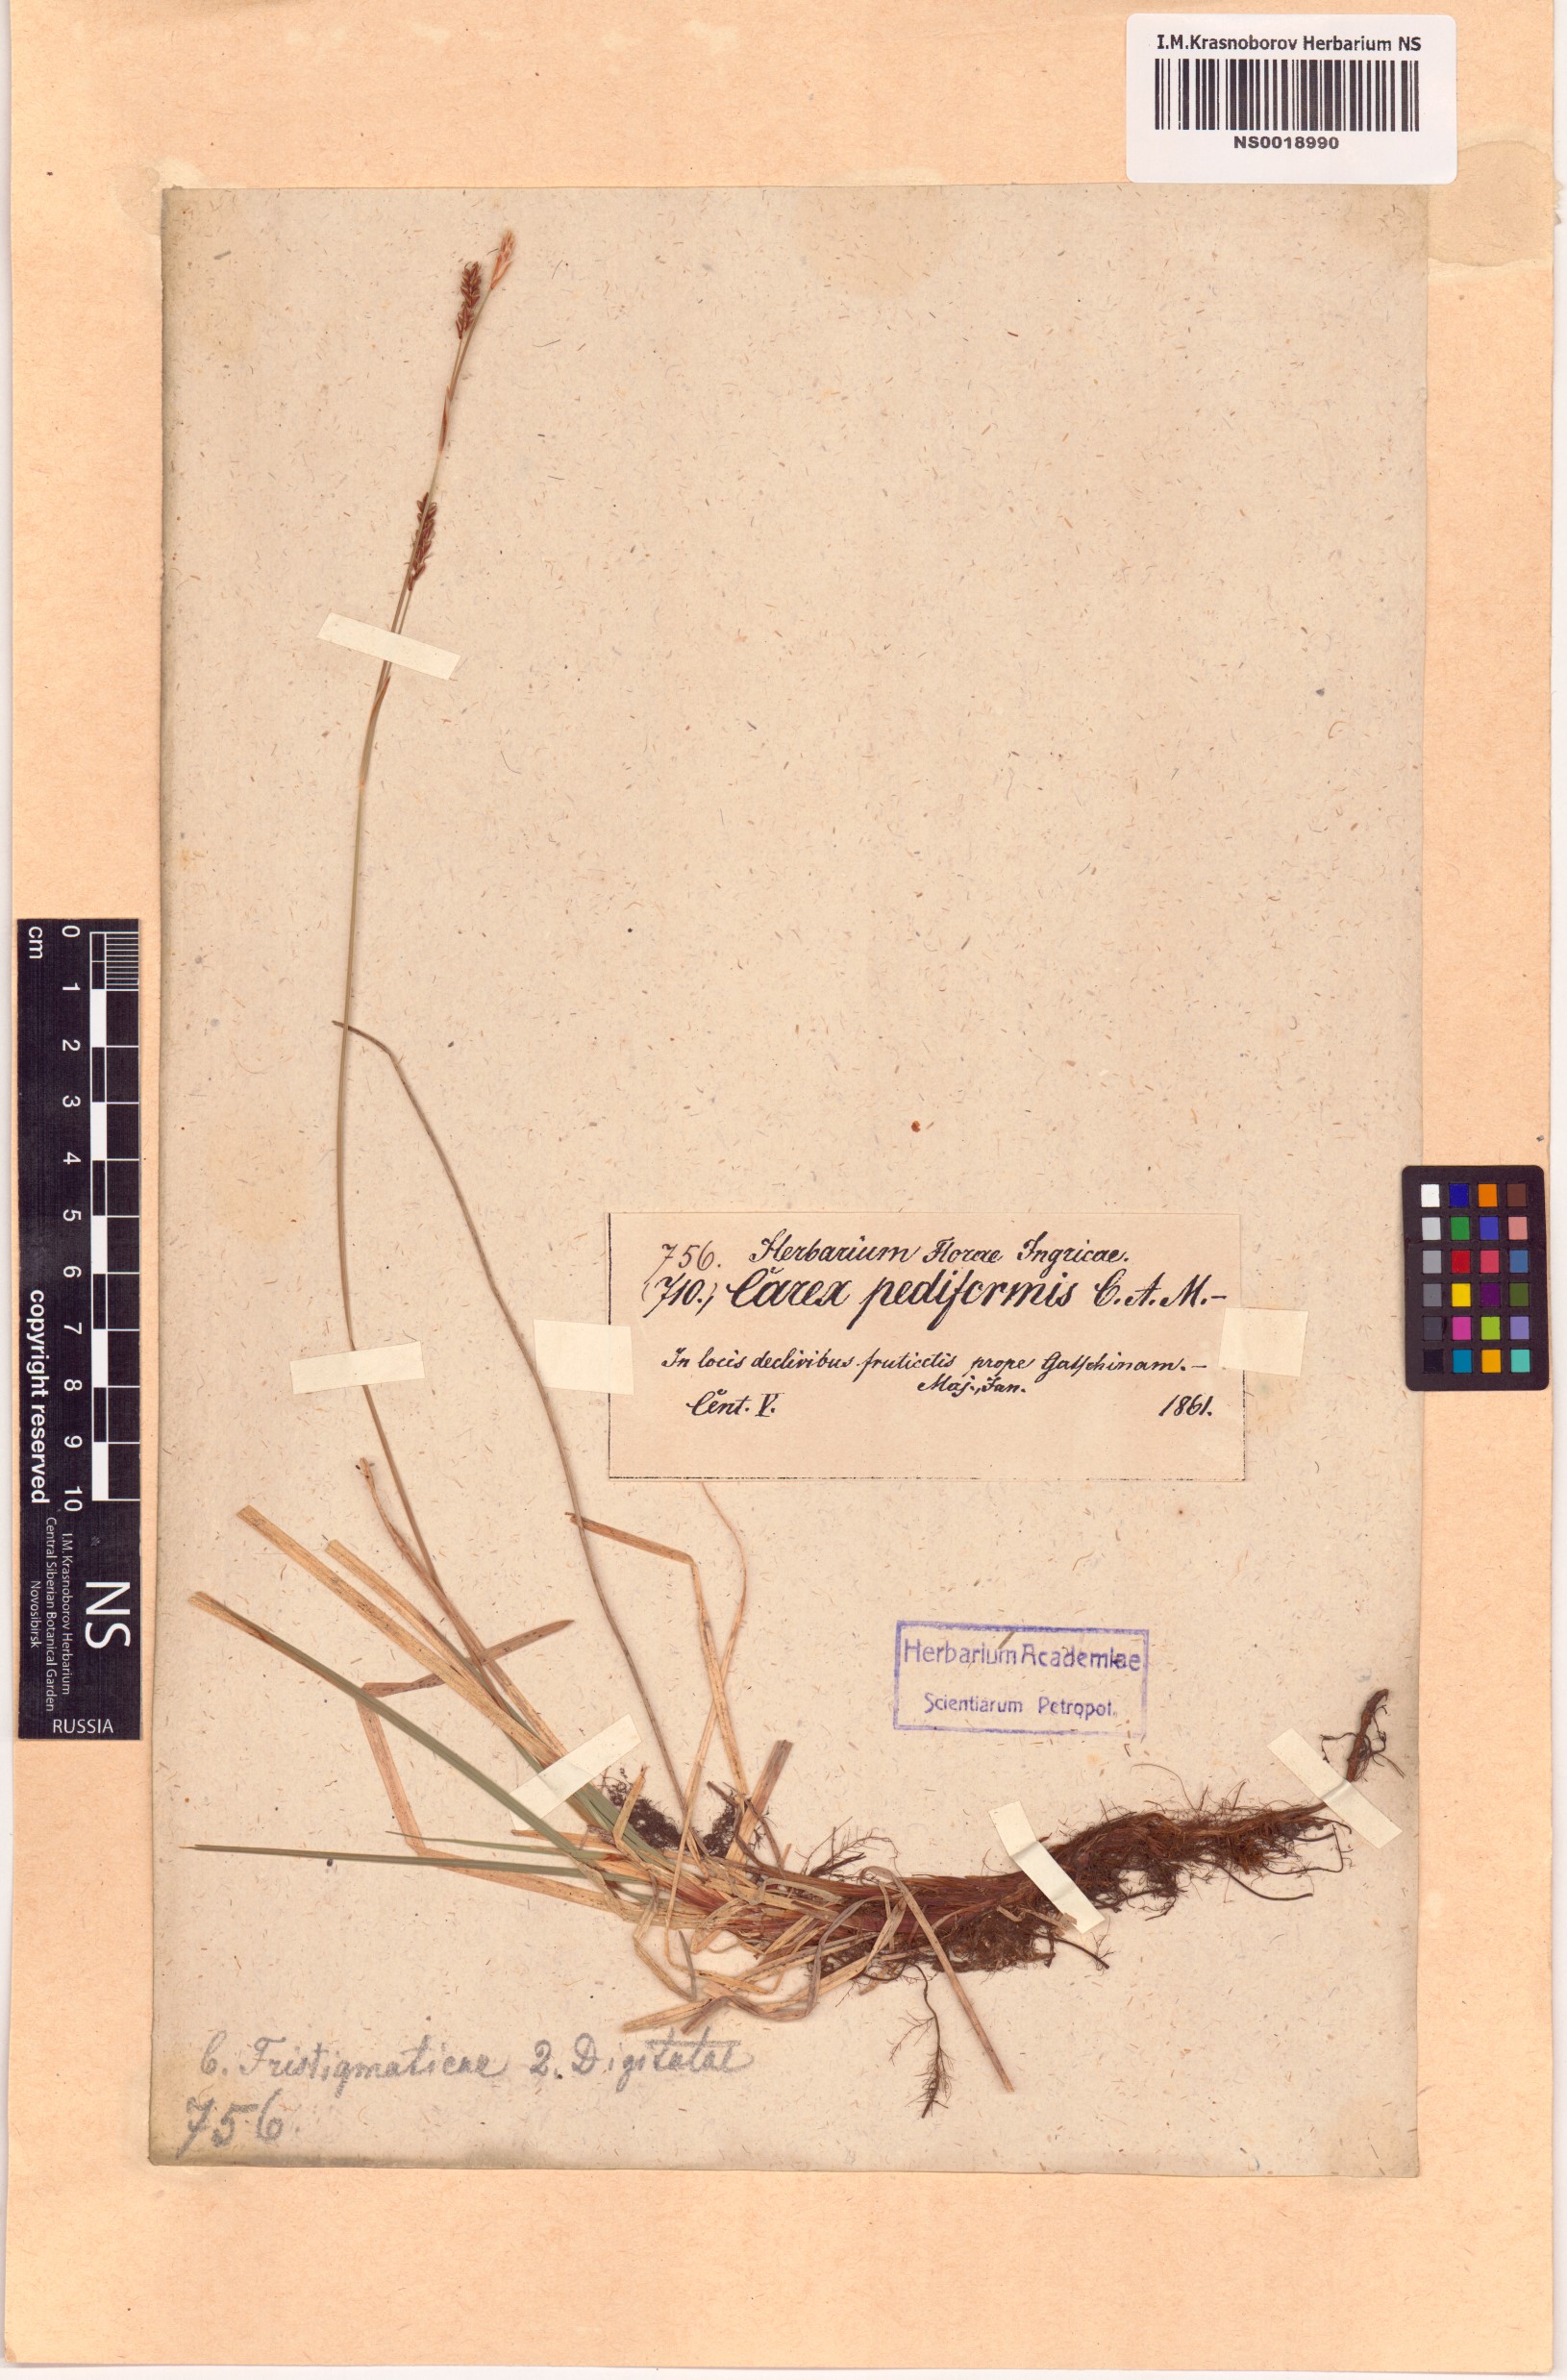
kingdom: Plantae
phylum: Tracheophyta
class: Liliopsida
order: Poales
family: Cyperaceae
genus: Carex
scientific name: Carex pediformis
